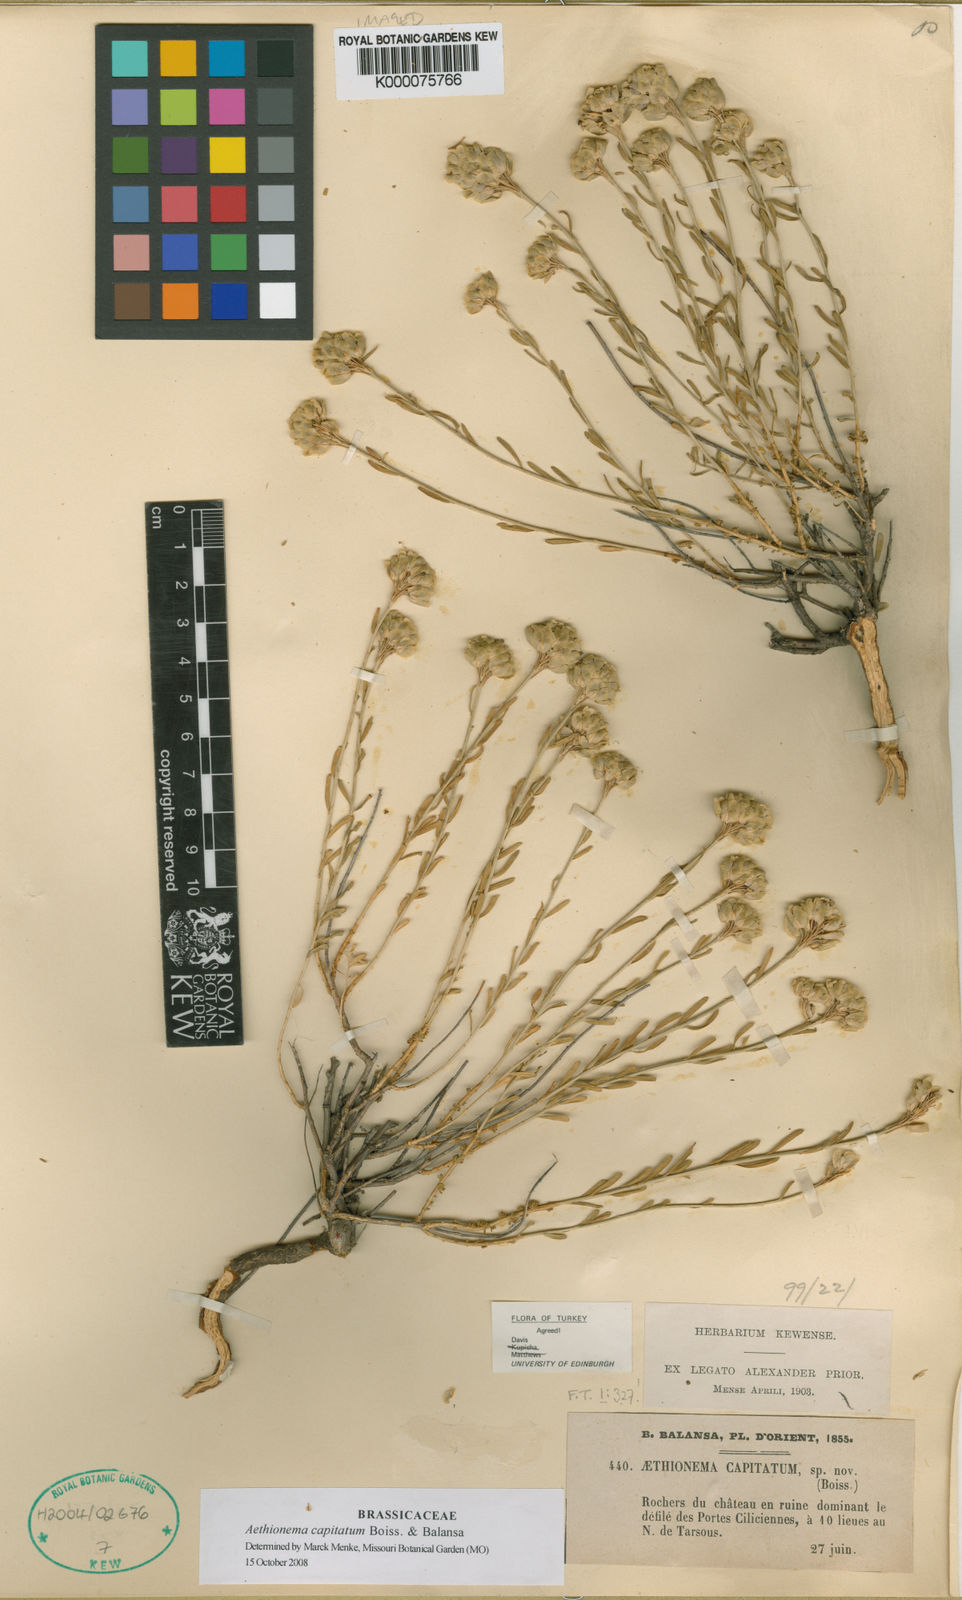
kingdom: Plantae
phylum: Tracheophyta
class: Magnoliopsida
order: Brassicales
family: Brassicaceae
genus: Aethionema
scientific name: Aethionema capitatum
